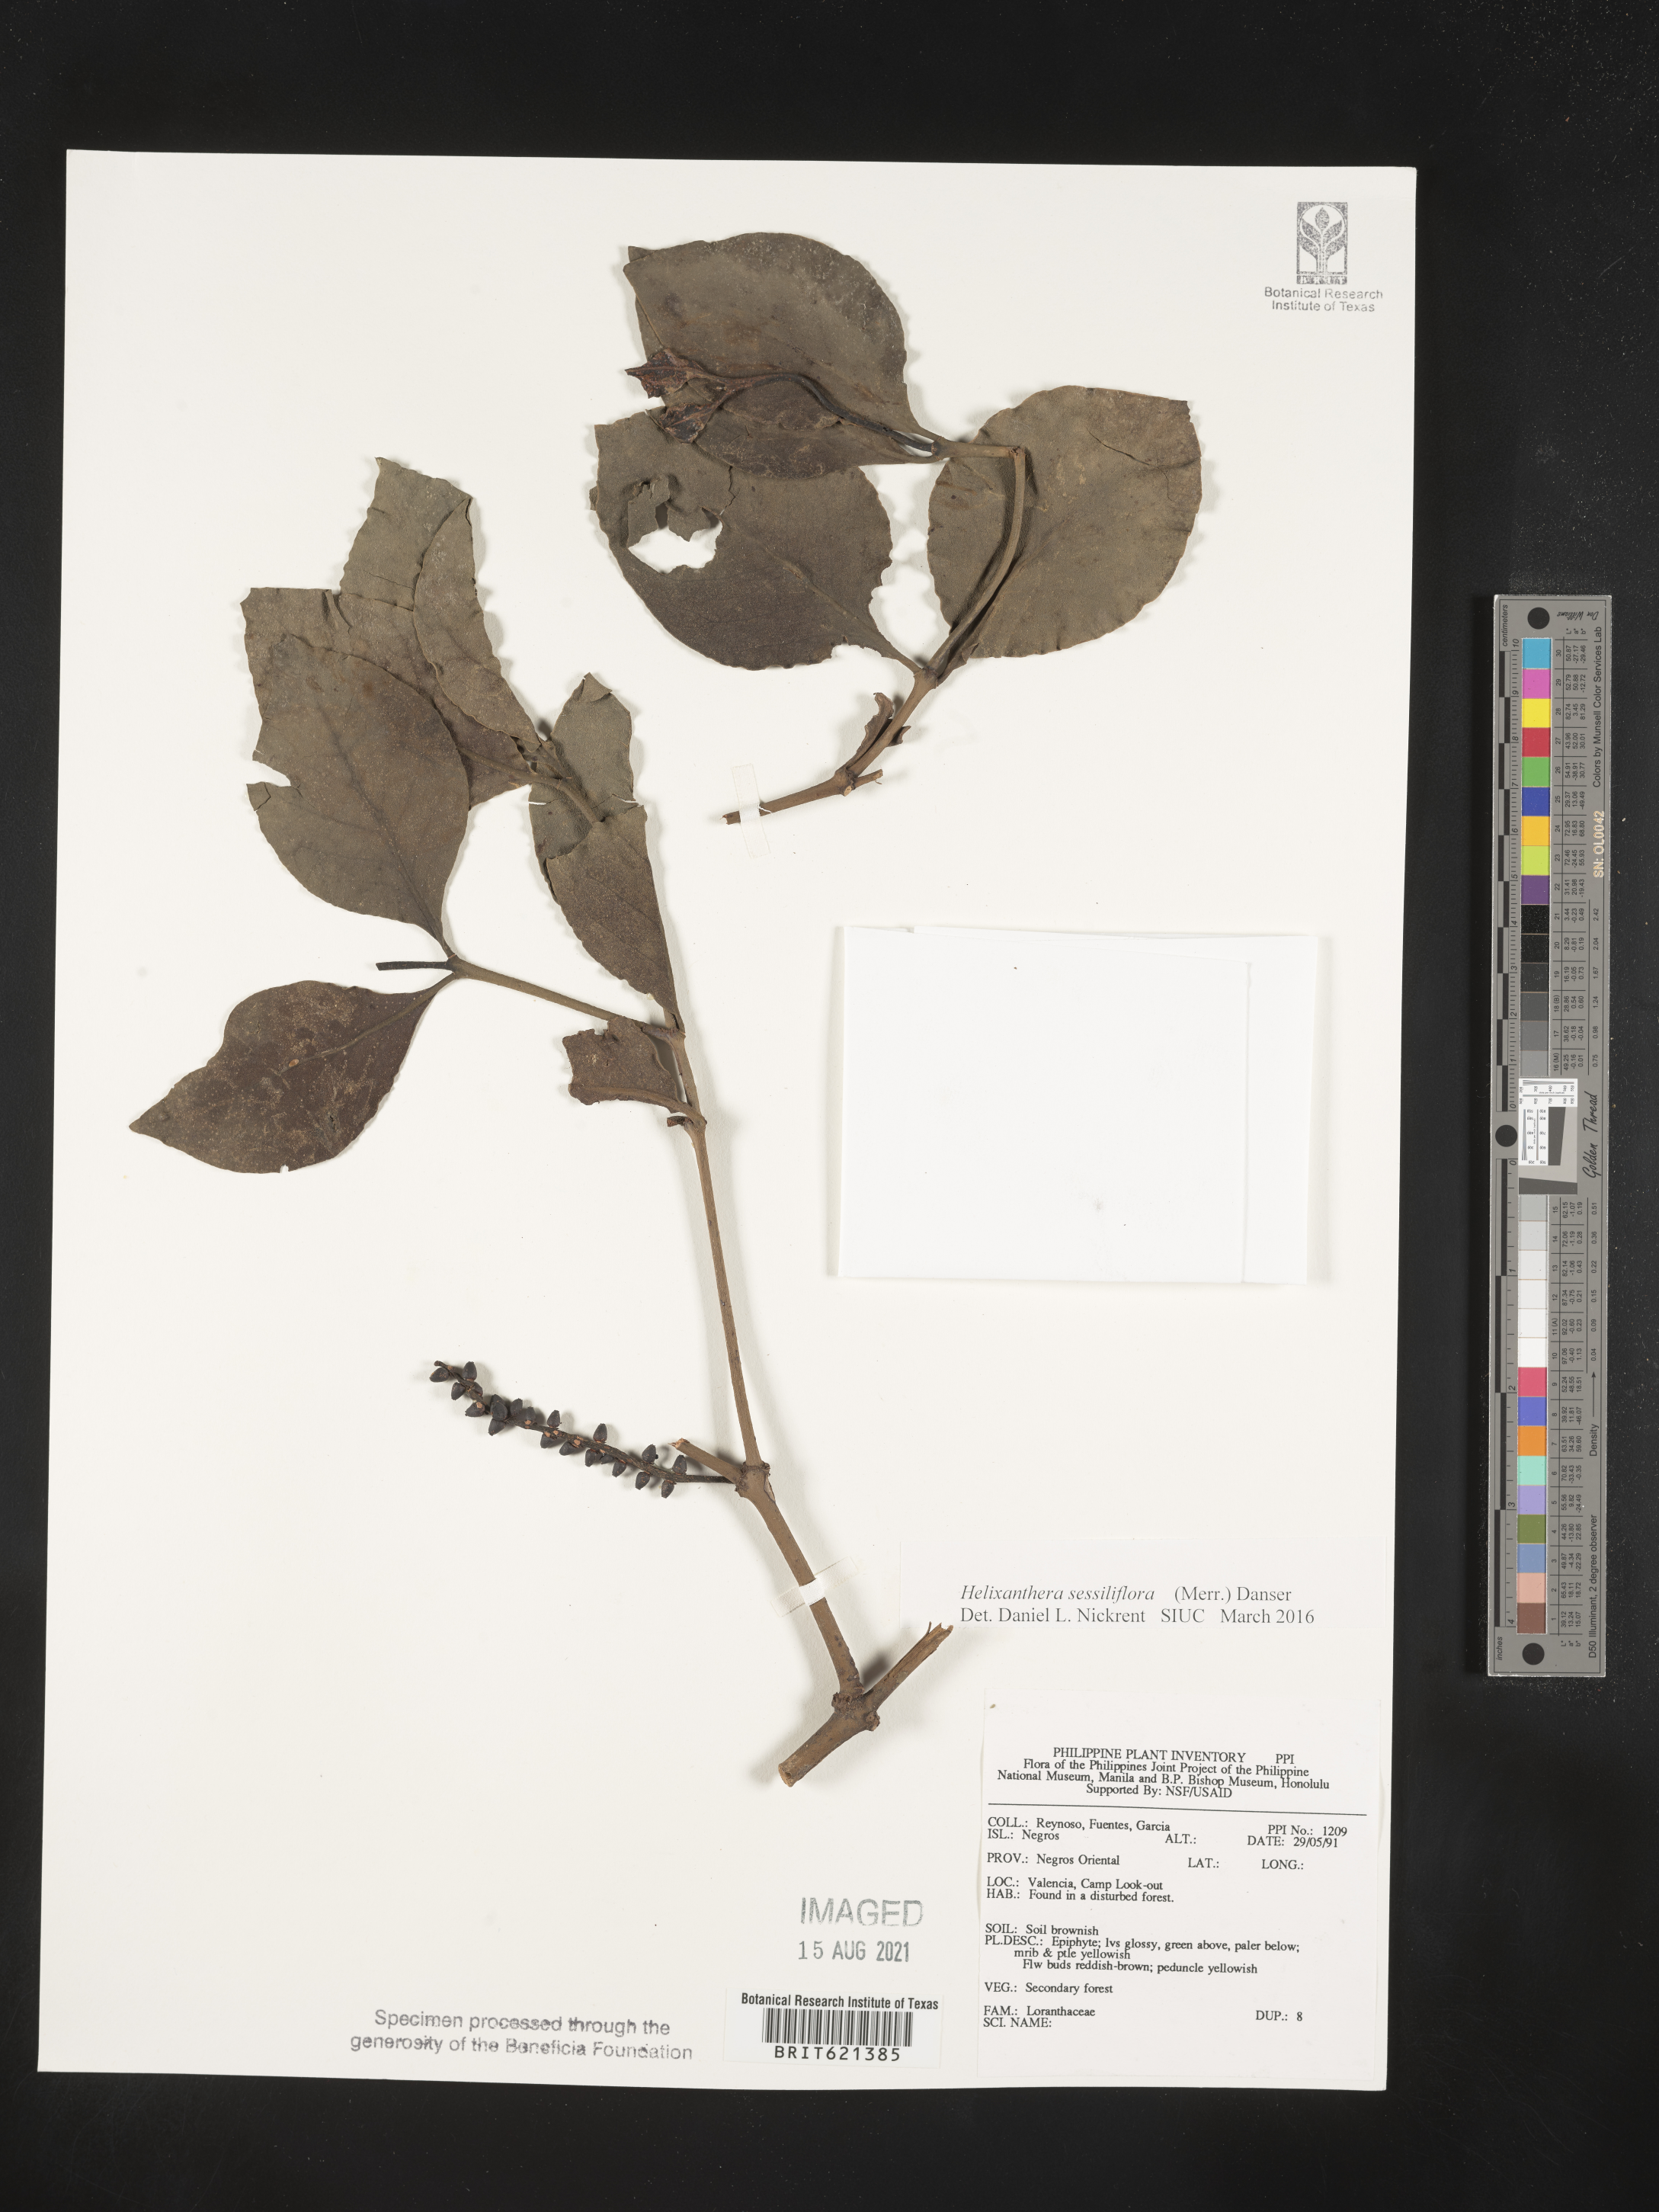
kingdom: Plantae
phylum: Tracheophyta
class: Magnoliopsida
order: Santalales
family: Loranthaceae
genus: Helixanthera
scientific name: Helixanthera sessiliflora
